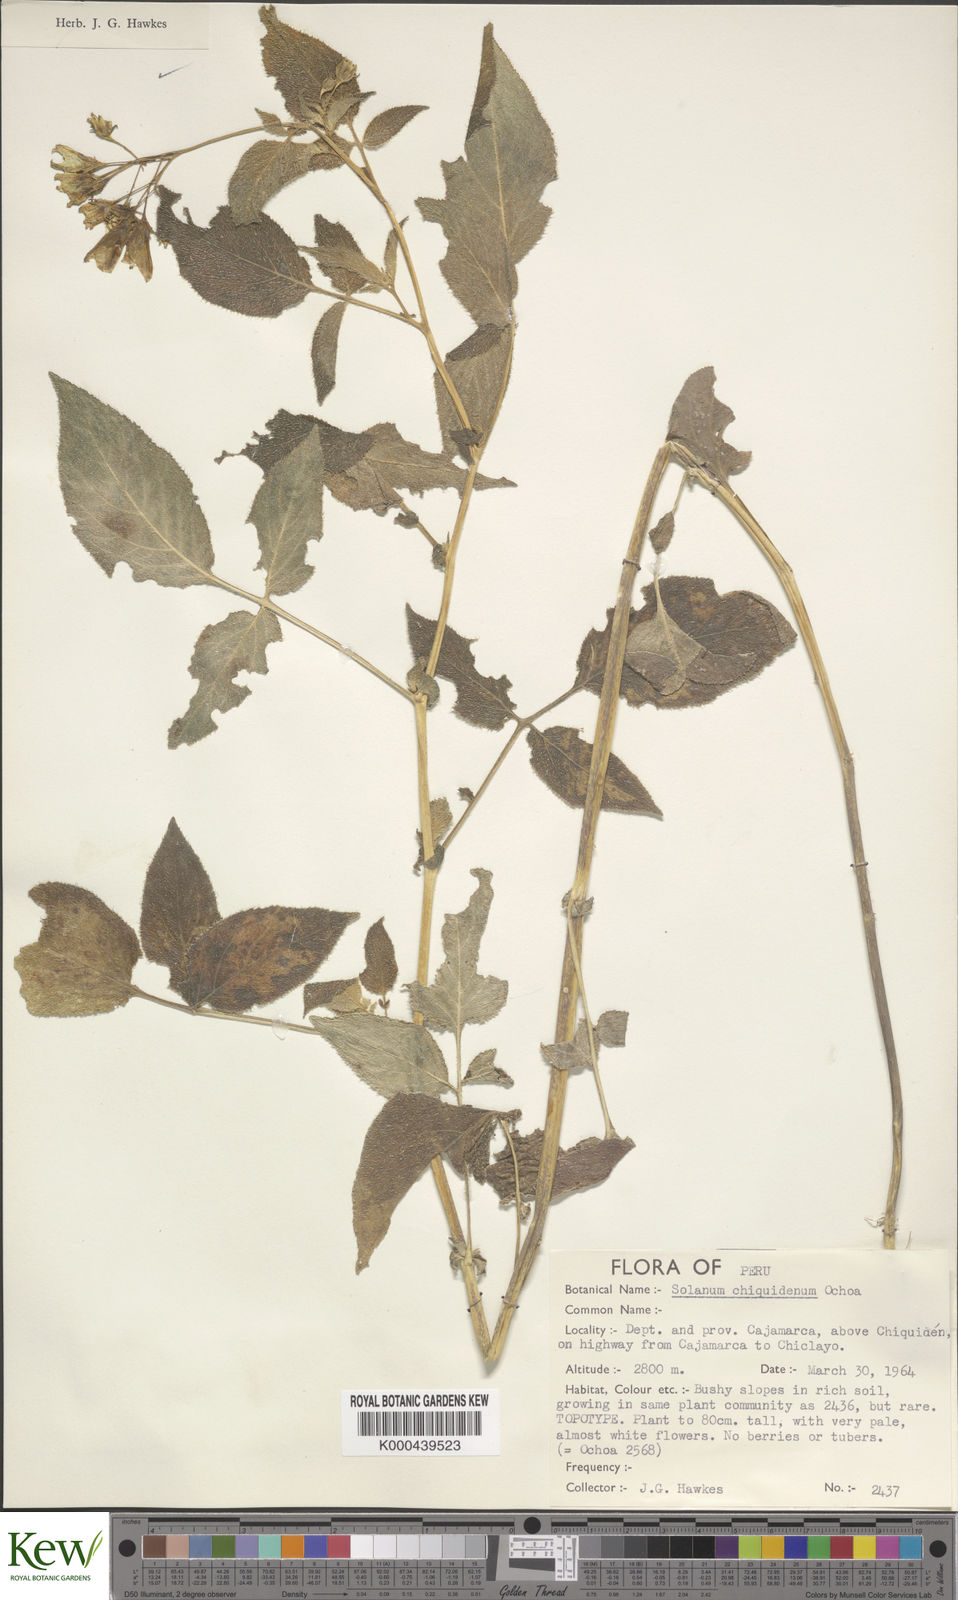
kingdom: Plantae
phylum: Tracheophyta
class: Magnoliopsida
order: Solanales
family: Solanaceae
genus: Solanum
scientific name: Solanum chiquidenum
